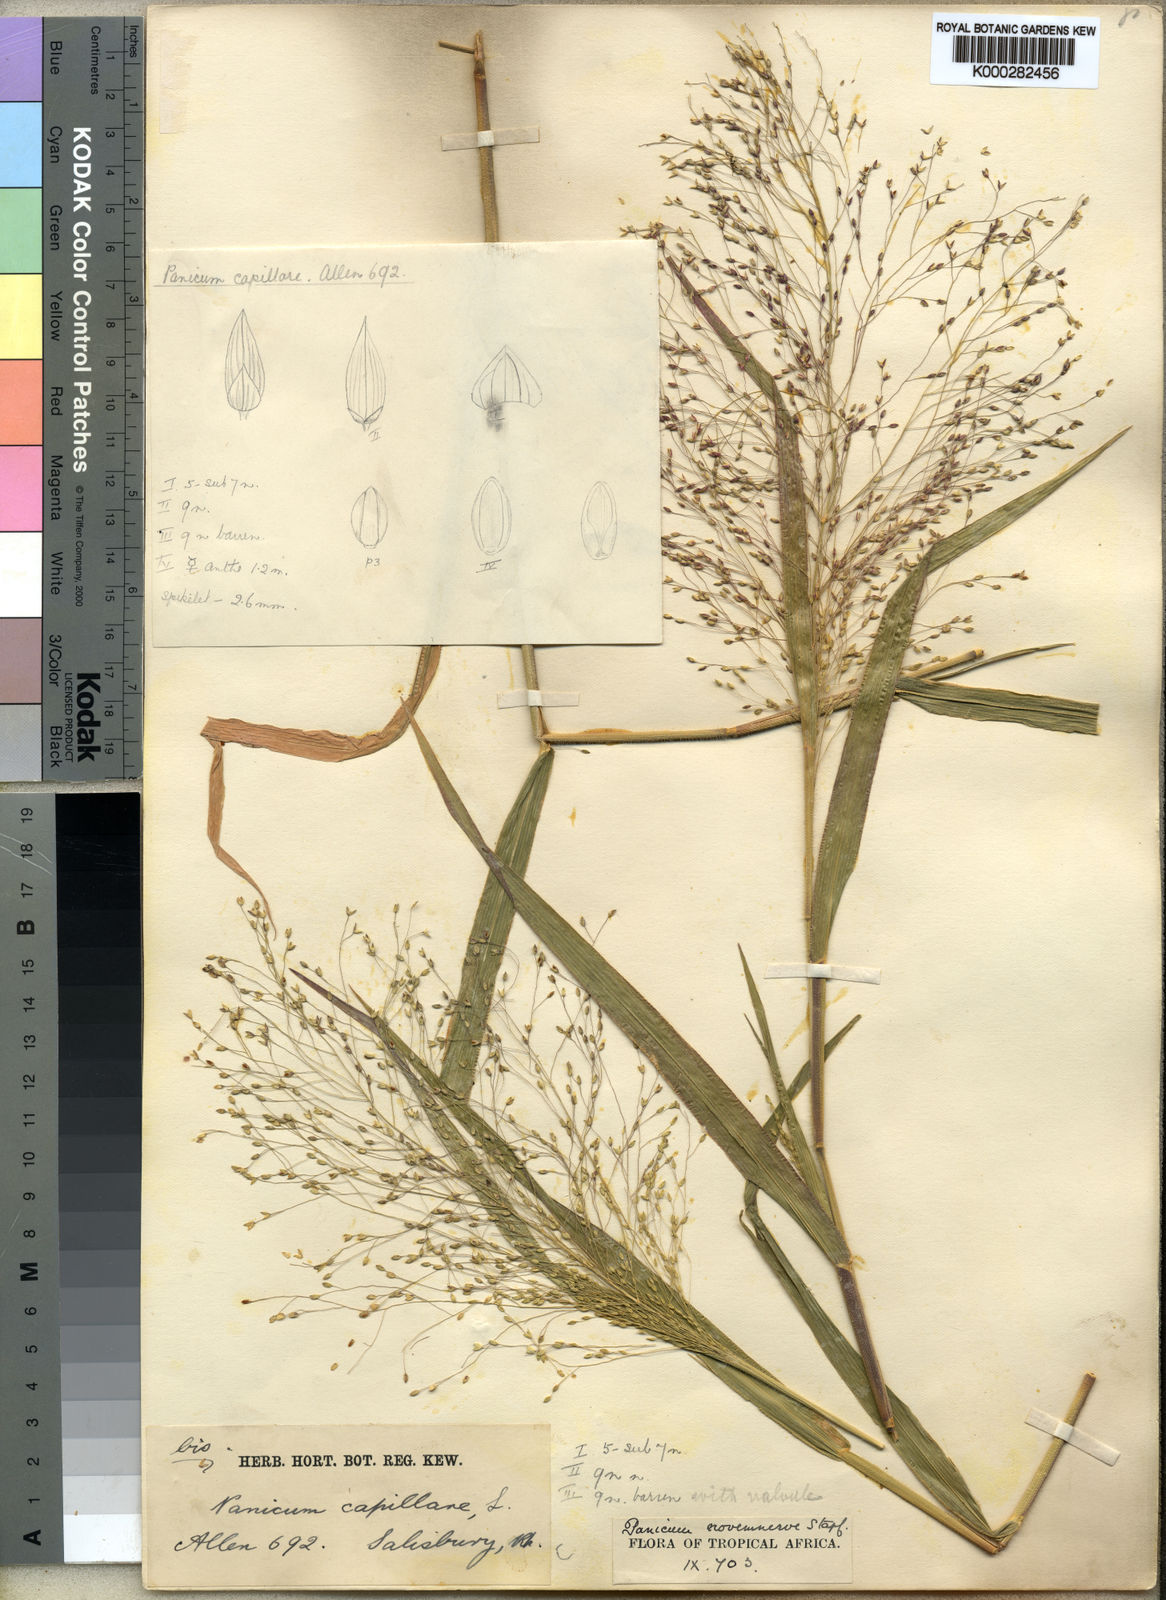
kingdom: Plantae
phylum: Tracheophyta
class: Liliopsida
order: Poales
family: Poaceae
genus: Panicum
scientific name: Panicum novemnerve
